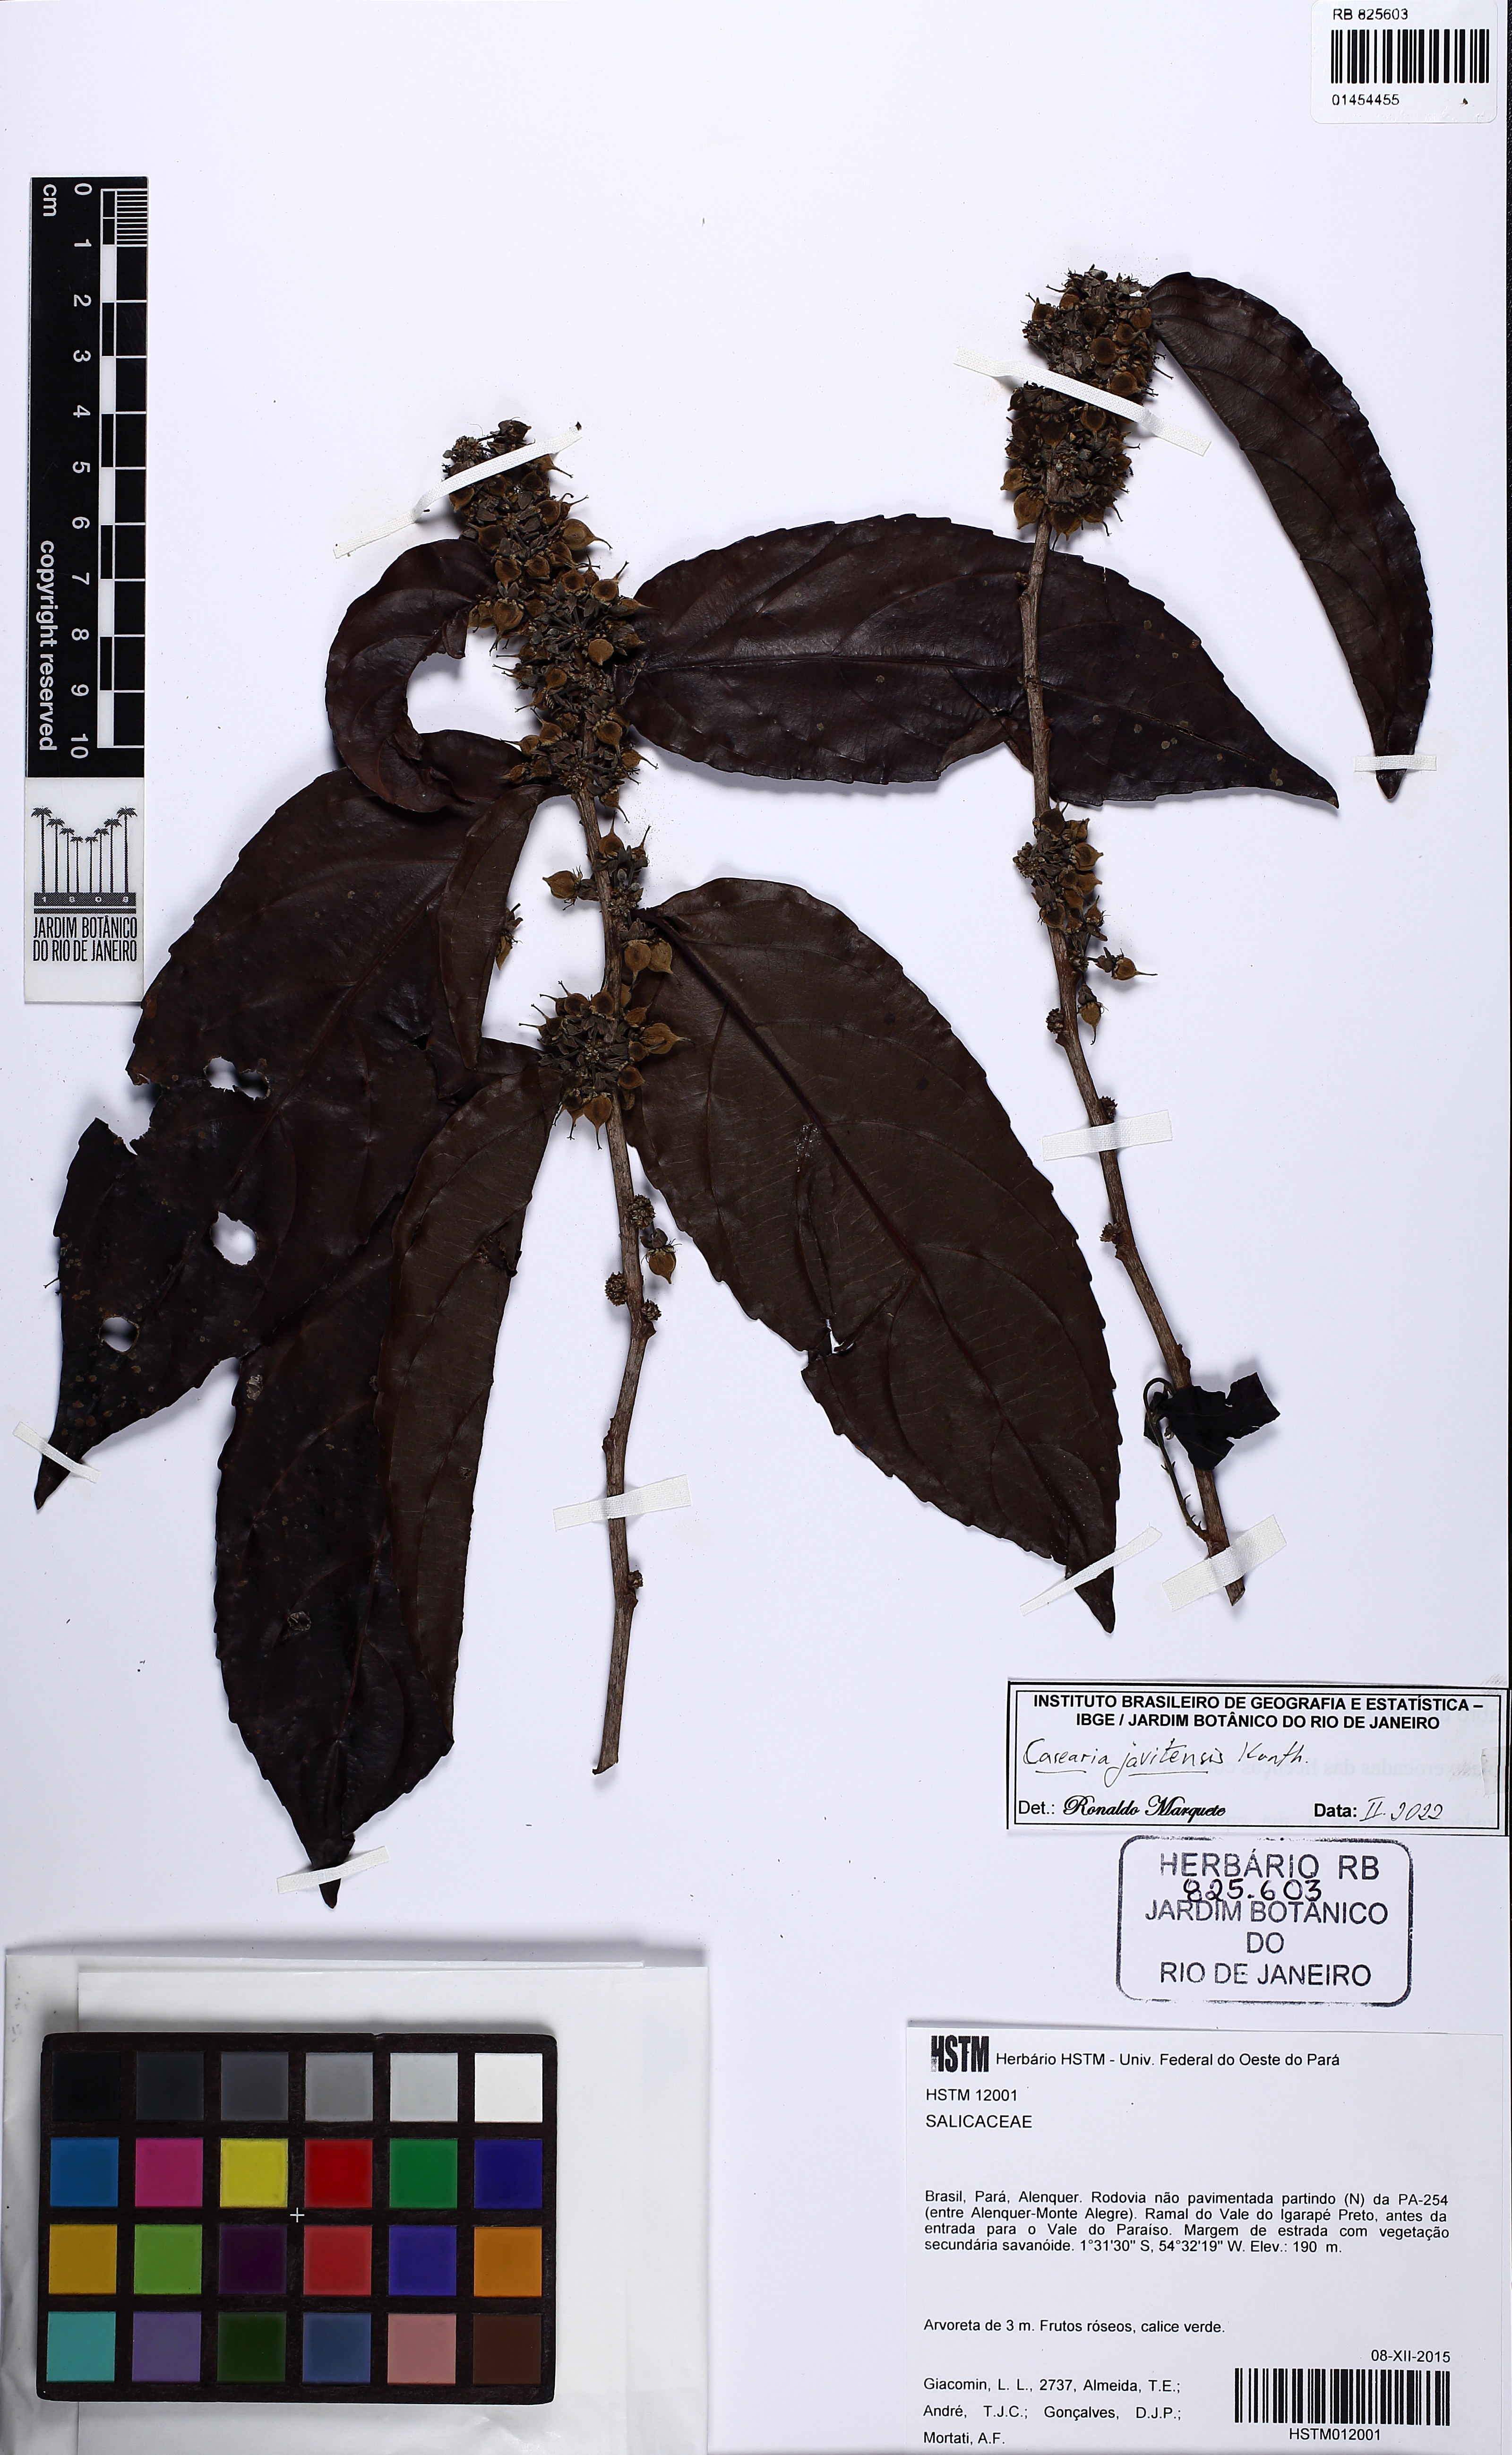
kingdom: Plantae
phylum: Tracheophyta
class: Magnoliopsida
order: Malpighiales
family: Salicaceae
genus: Piparea
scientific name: Piparea multiflora
